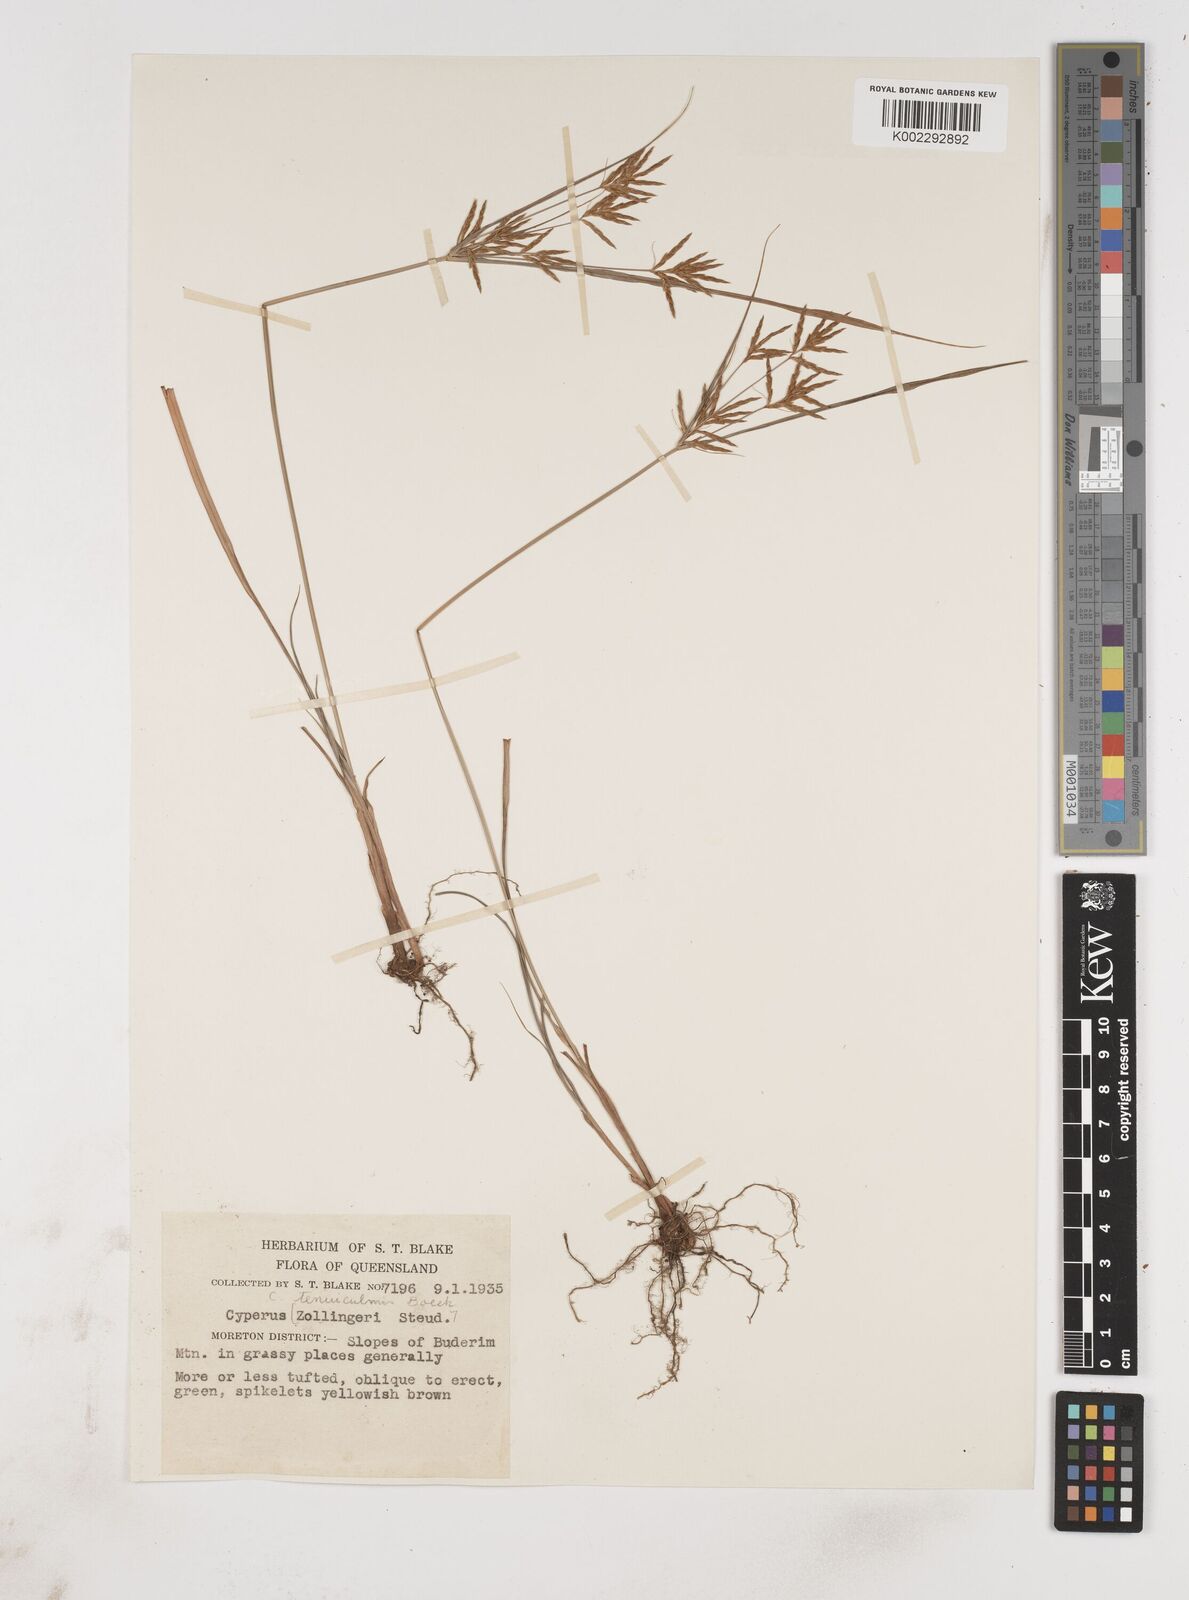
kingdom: Plantae
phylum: Tracheophyta
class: Liliopsida
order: Poales
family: Cyperaceae
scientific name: Cyperaceae
